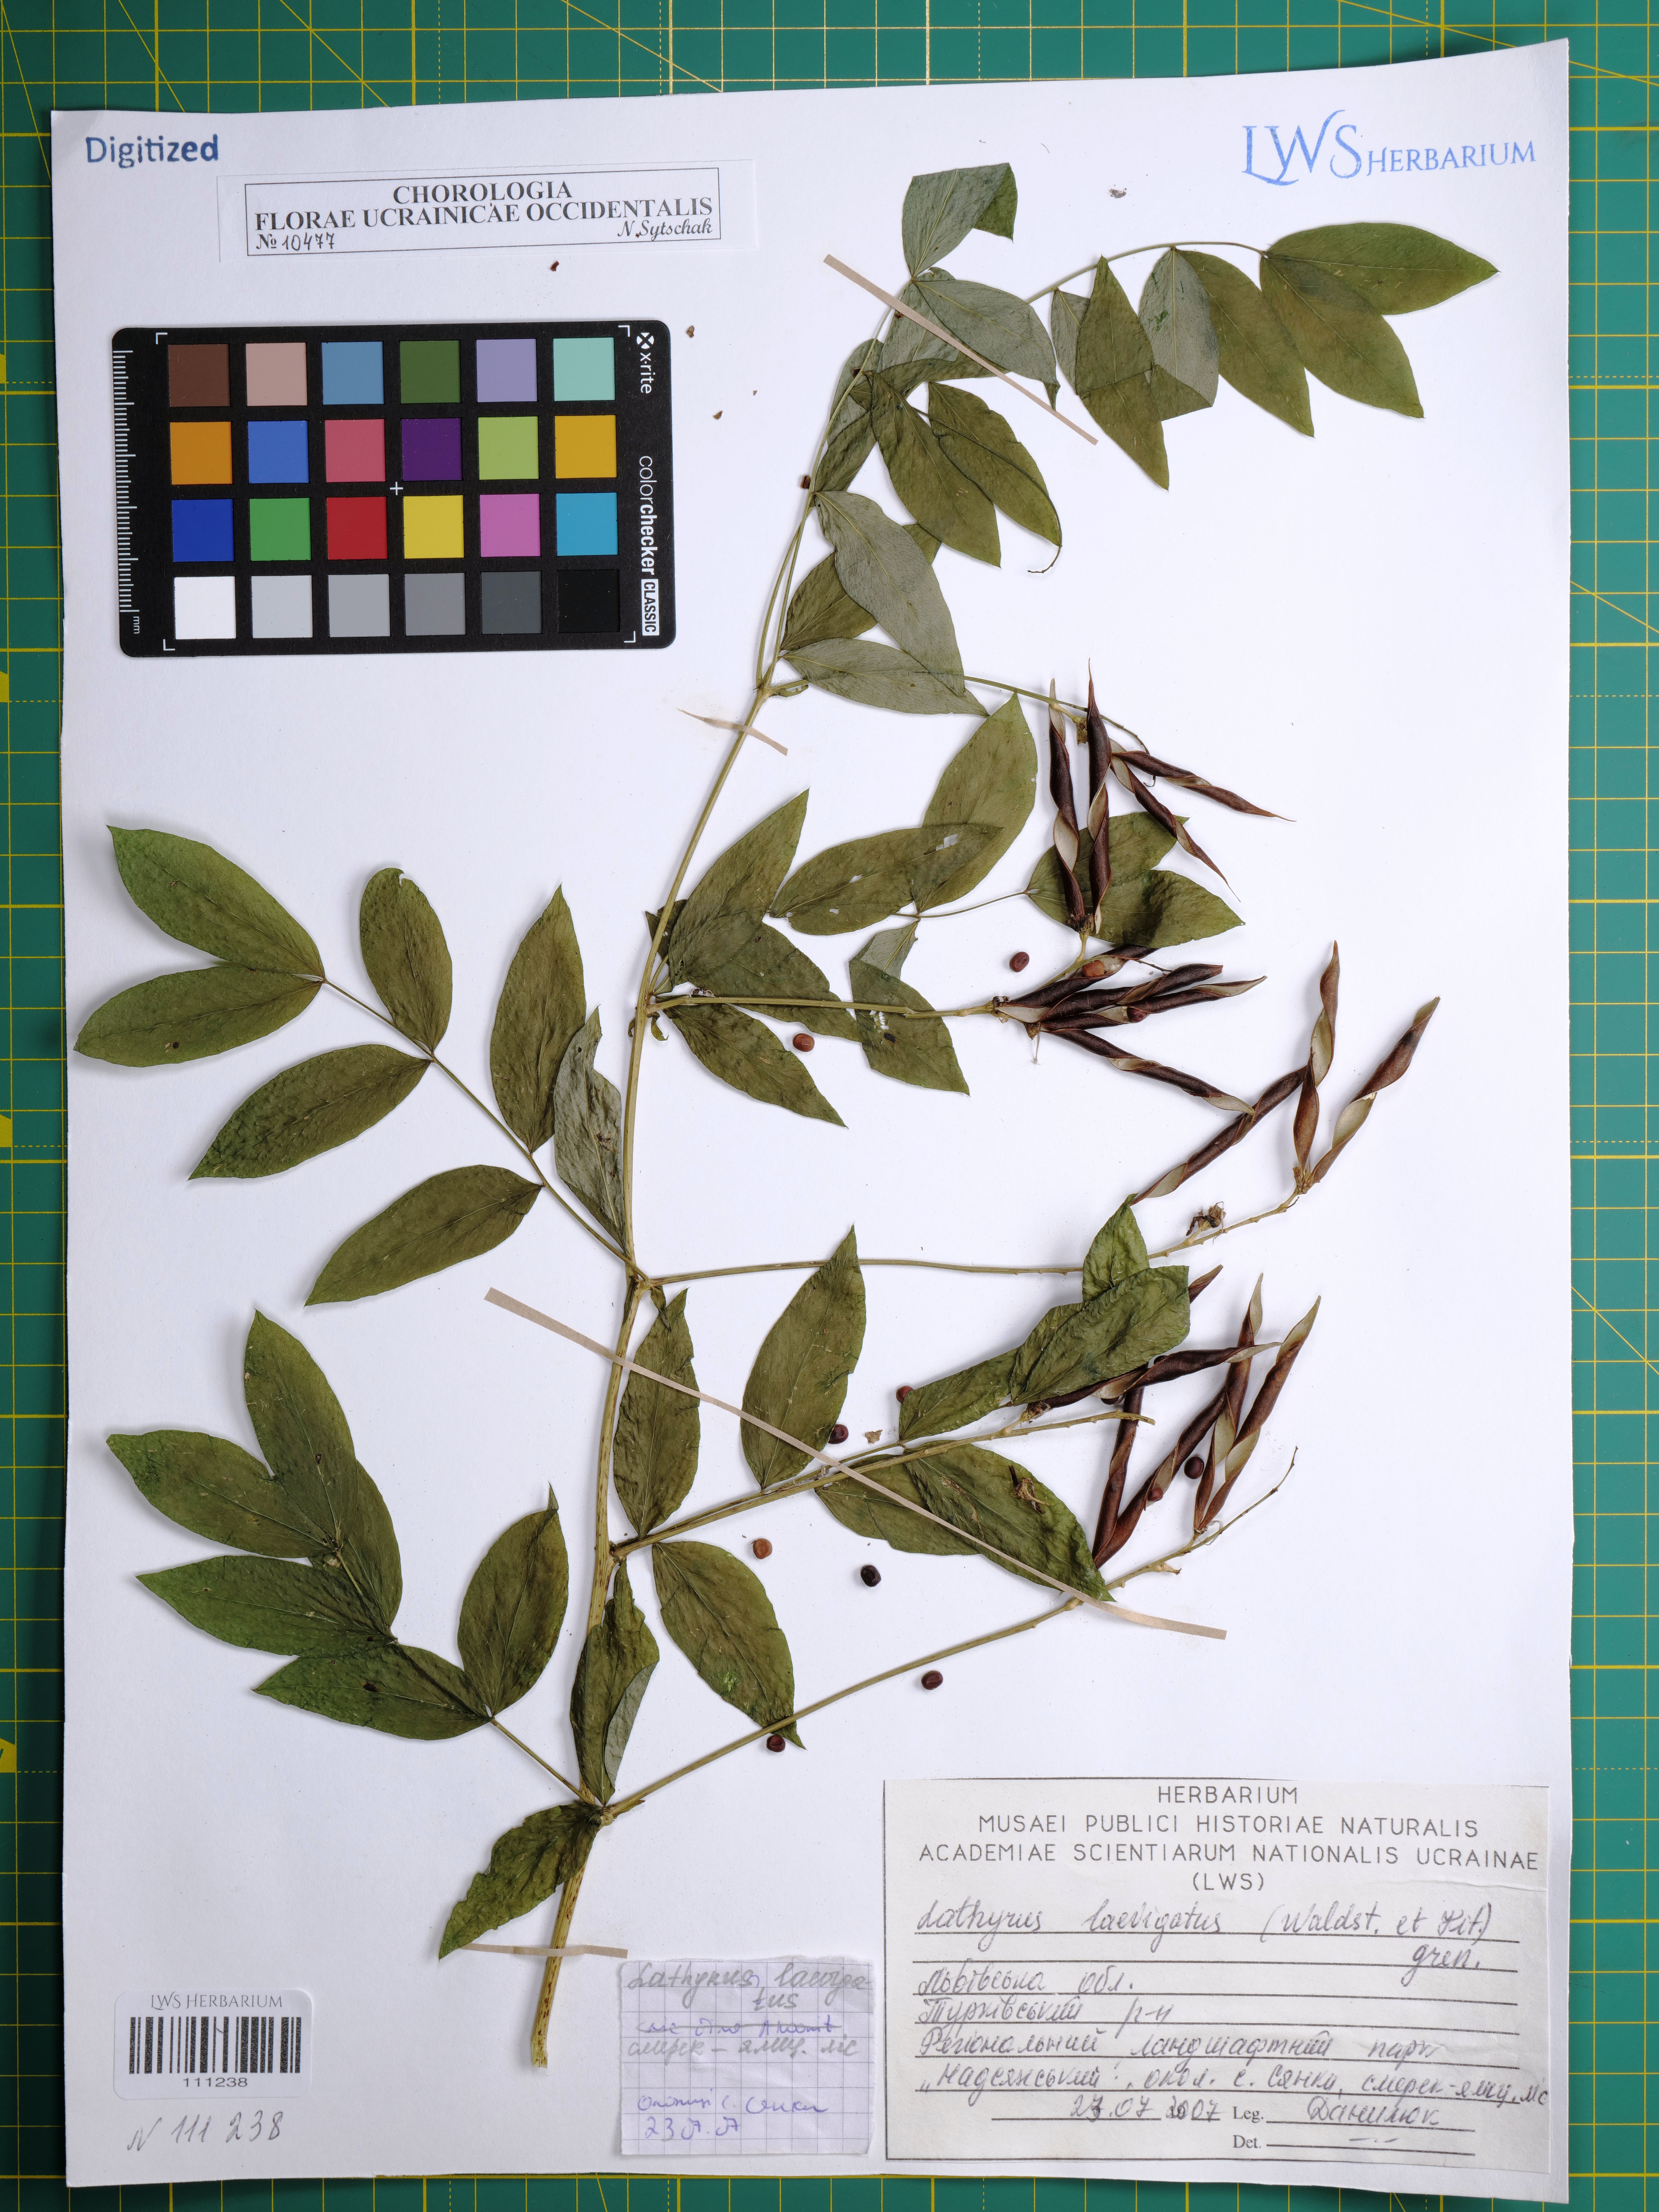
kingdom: Plantae
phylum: Tracheophyta
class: Magnoliopsida
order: Fabales
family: Fabaceae
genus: Lathyrus
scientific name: Lathyrus laevigatus
